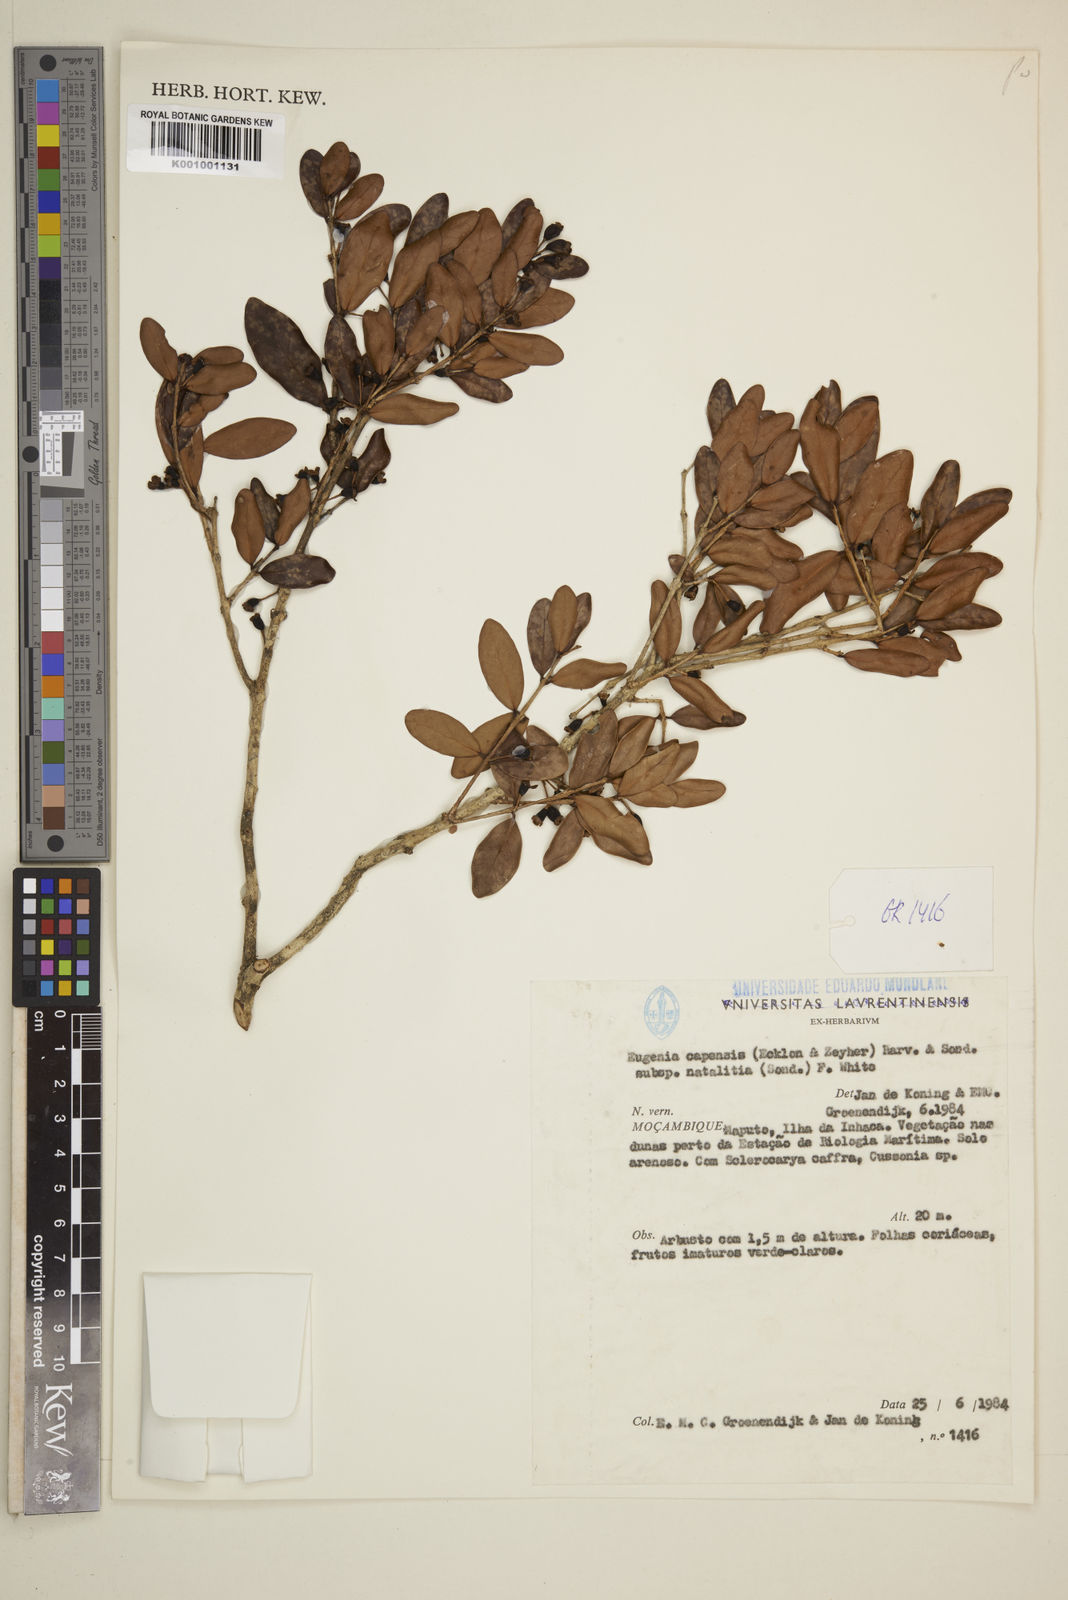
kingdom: Plantae
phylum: Tracheophyta
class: Magnoliopsida
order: Myrtales
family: Myrtaceae
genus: Eugenia
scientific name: Eugenia capensis
